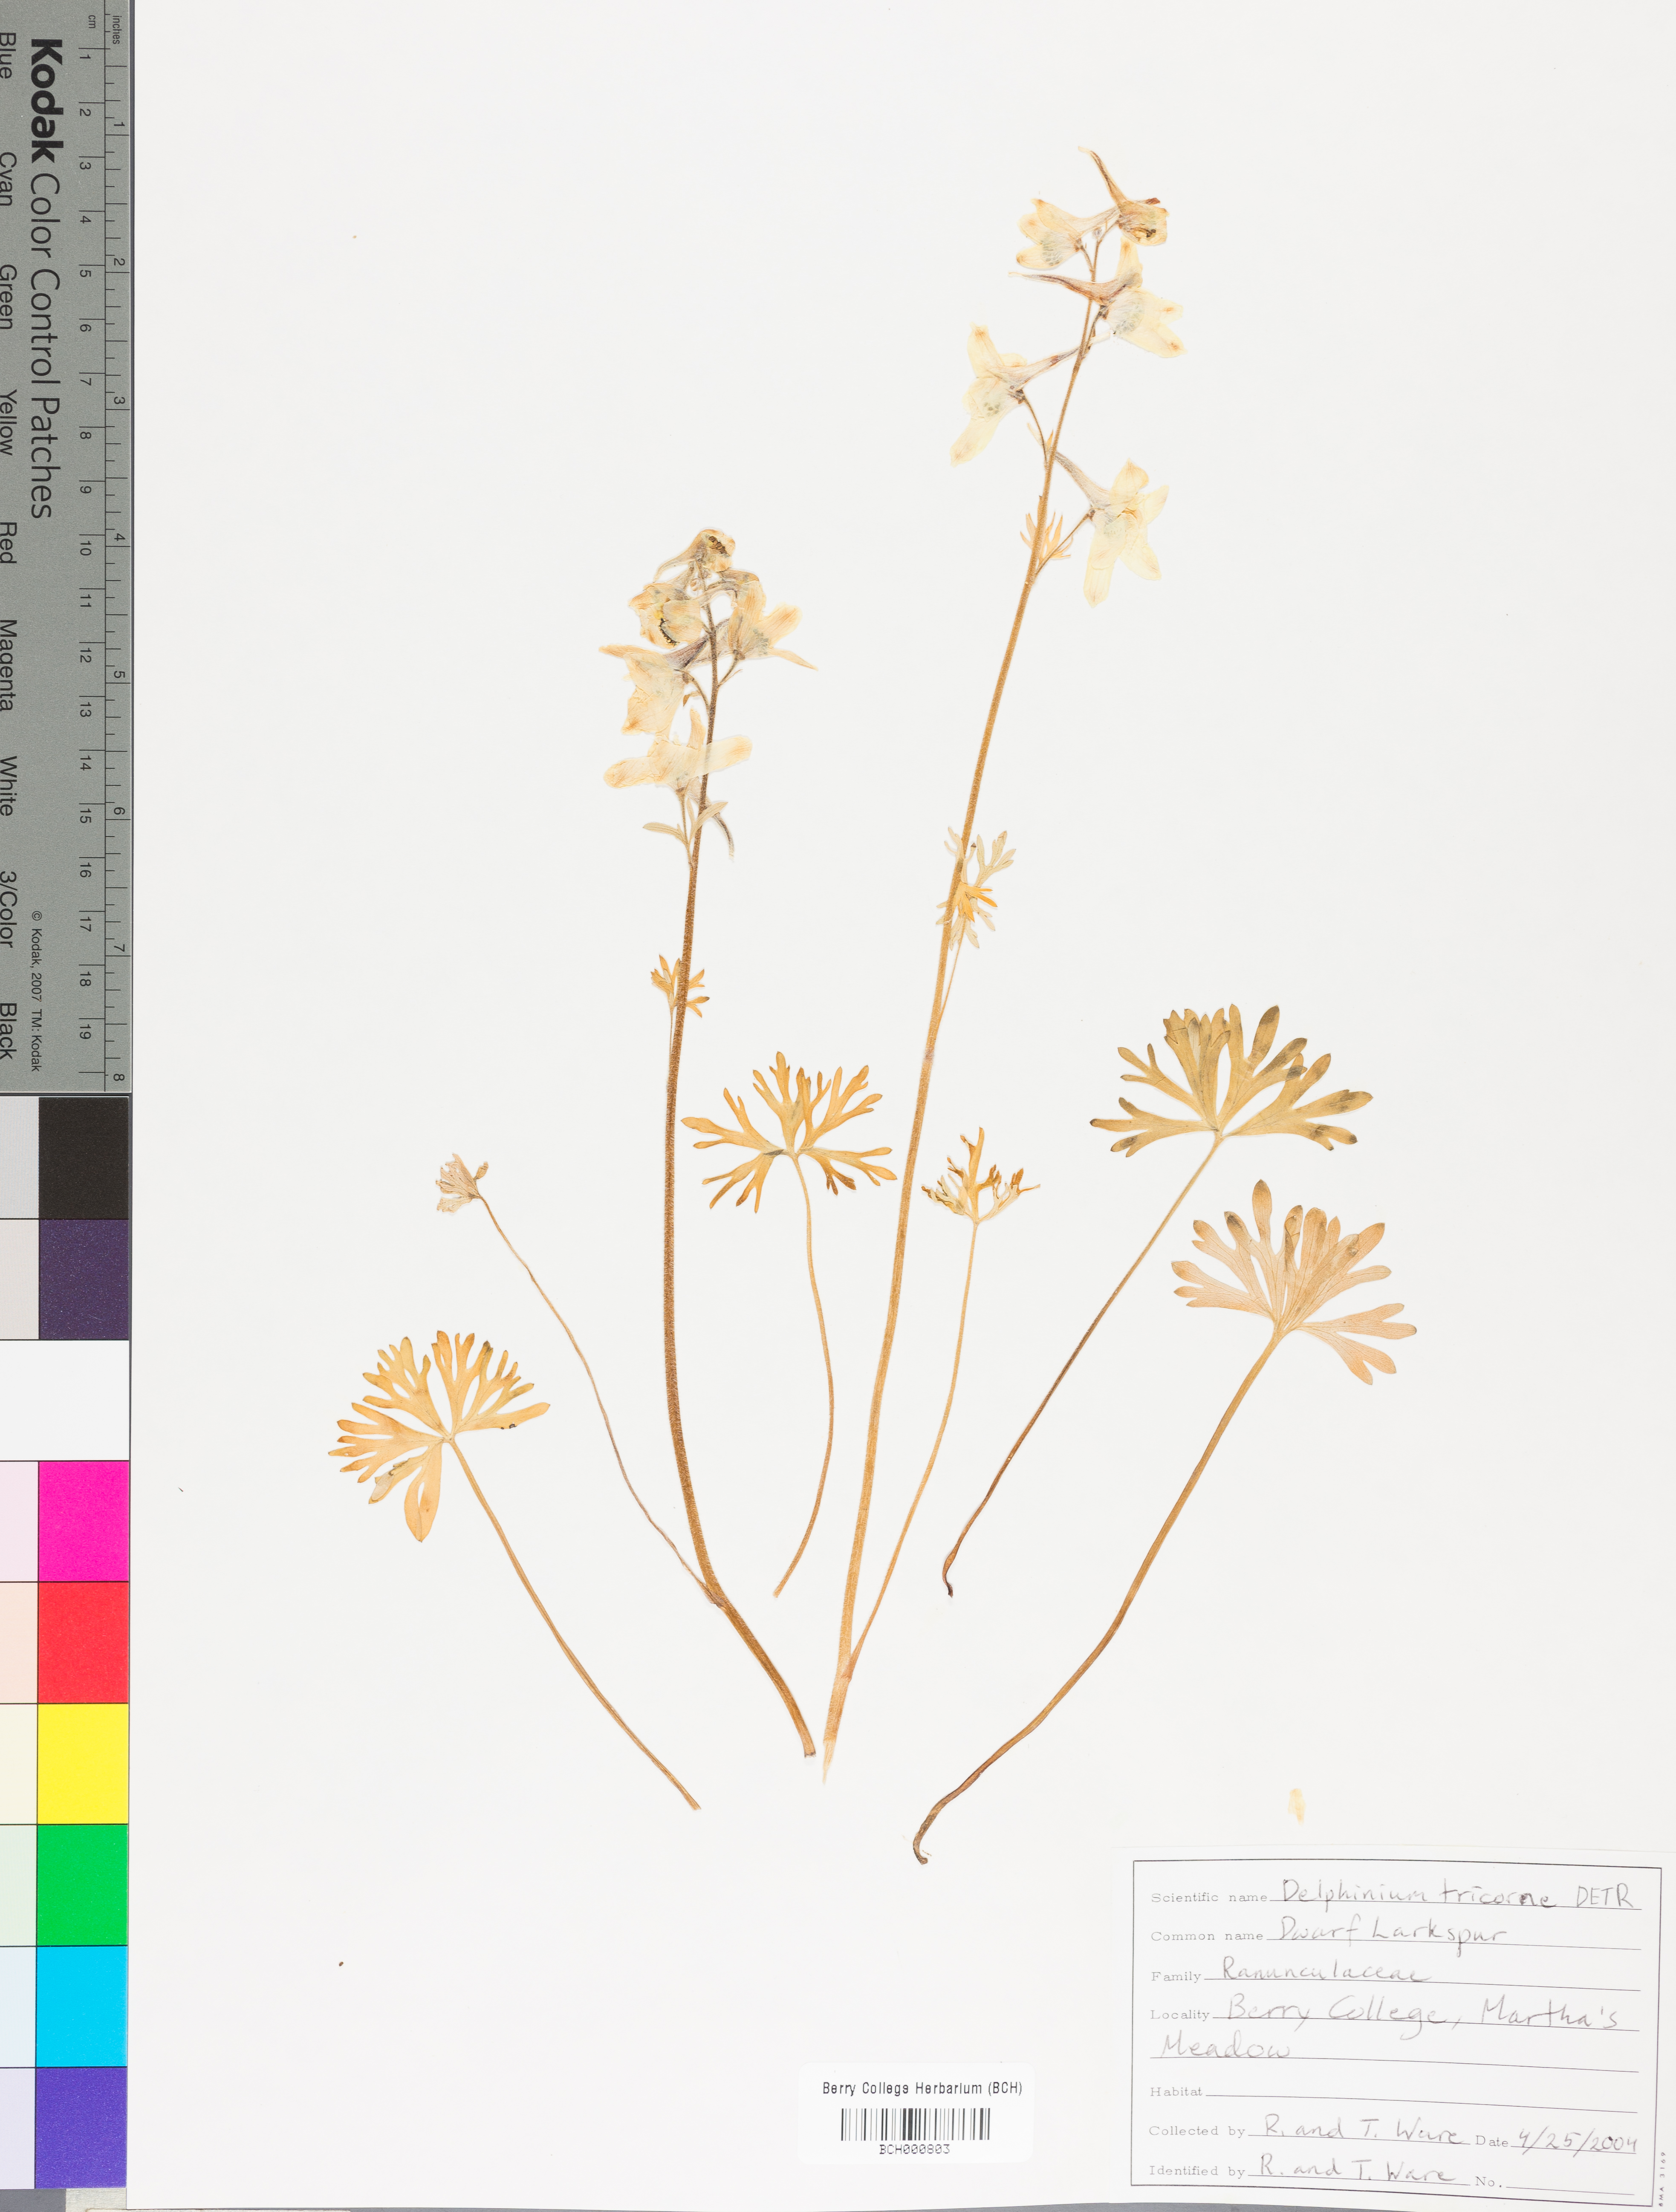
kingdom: Plantae
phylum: Tracheophyta
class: Magnoliopsida
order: Ranunculales
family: Ranunculaceae
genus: Delphinium
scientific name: Delphinium tricorne
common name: Dwarf larkspur
